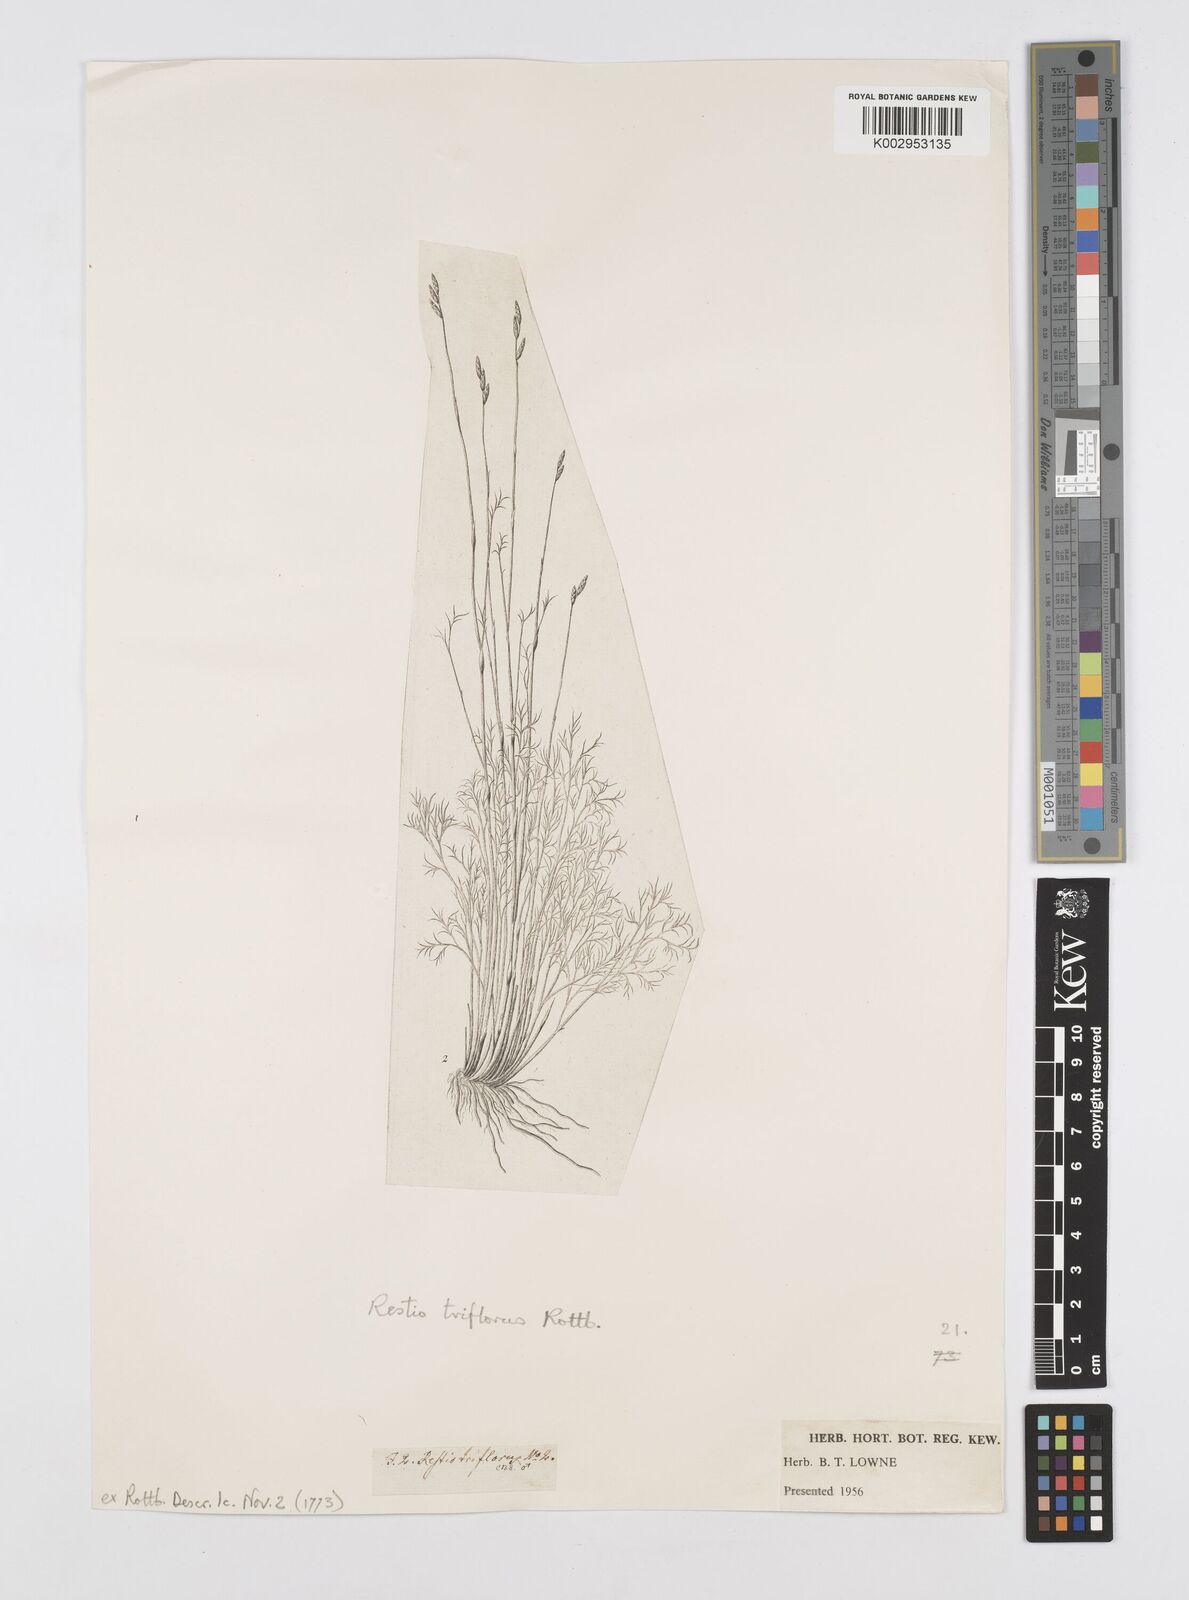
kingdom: Plantae
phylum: Tracheophyta
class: Liliopsida
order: Poales
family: Restionaceae
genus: Restio
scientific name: Restio triflorus
